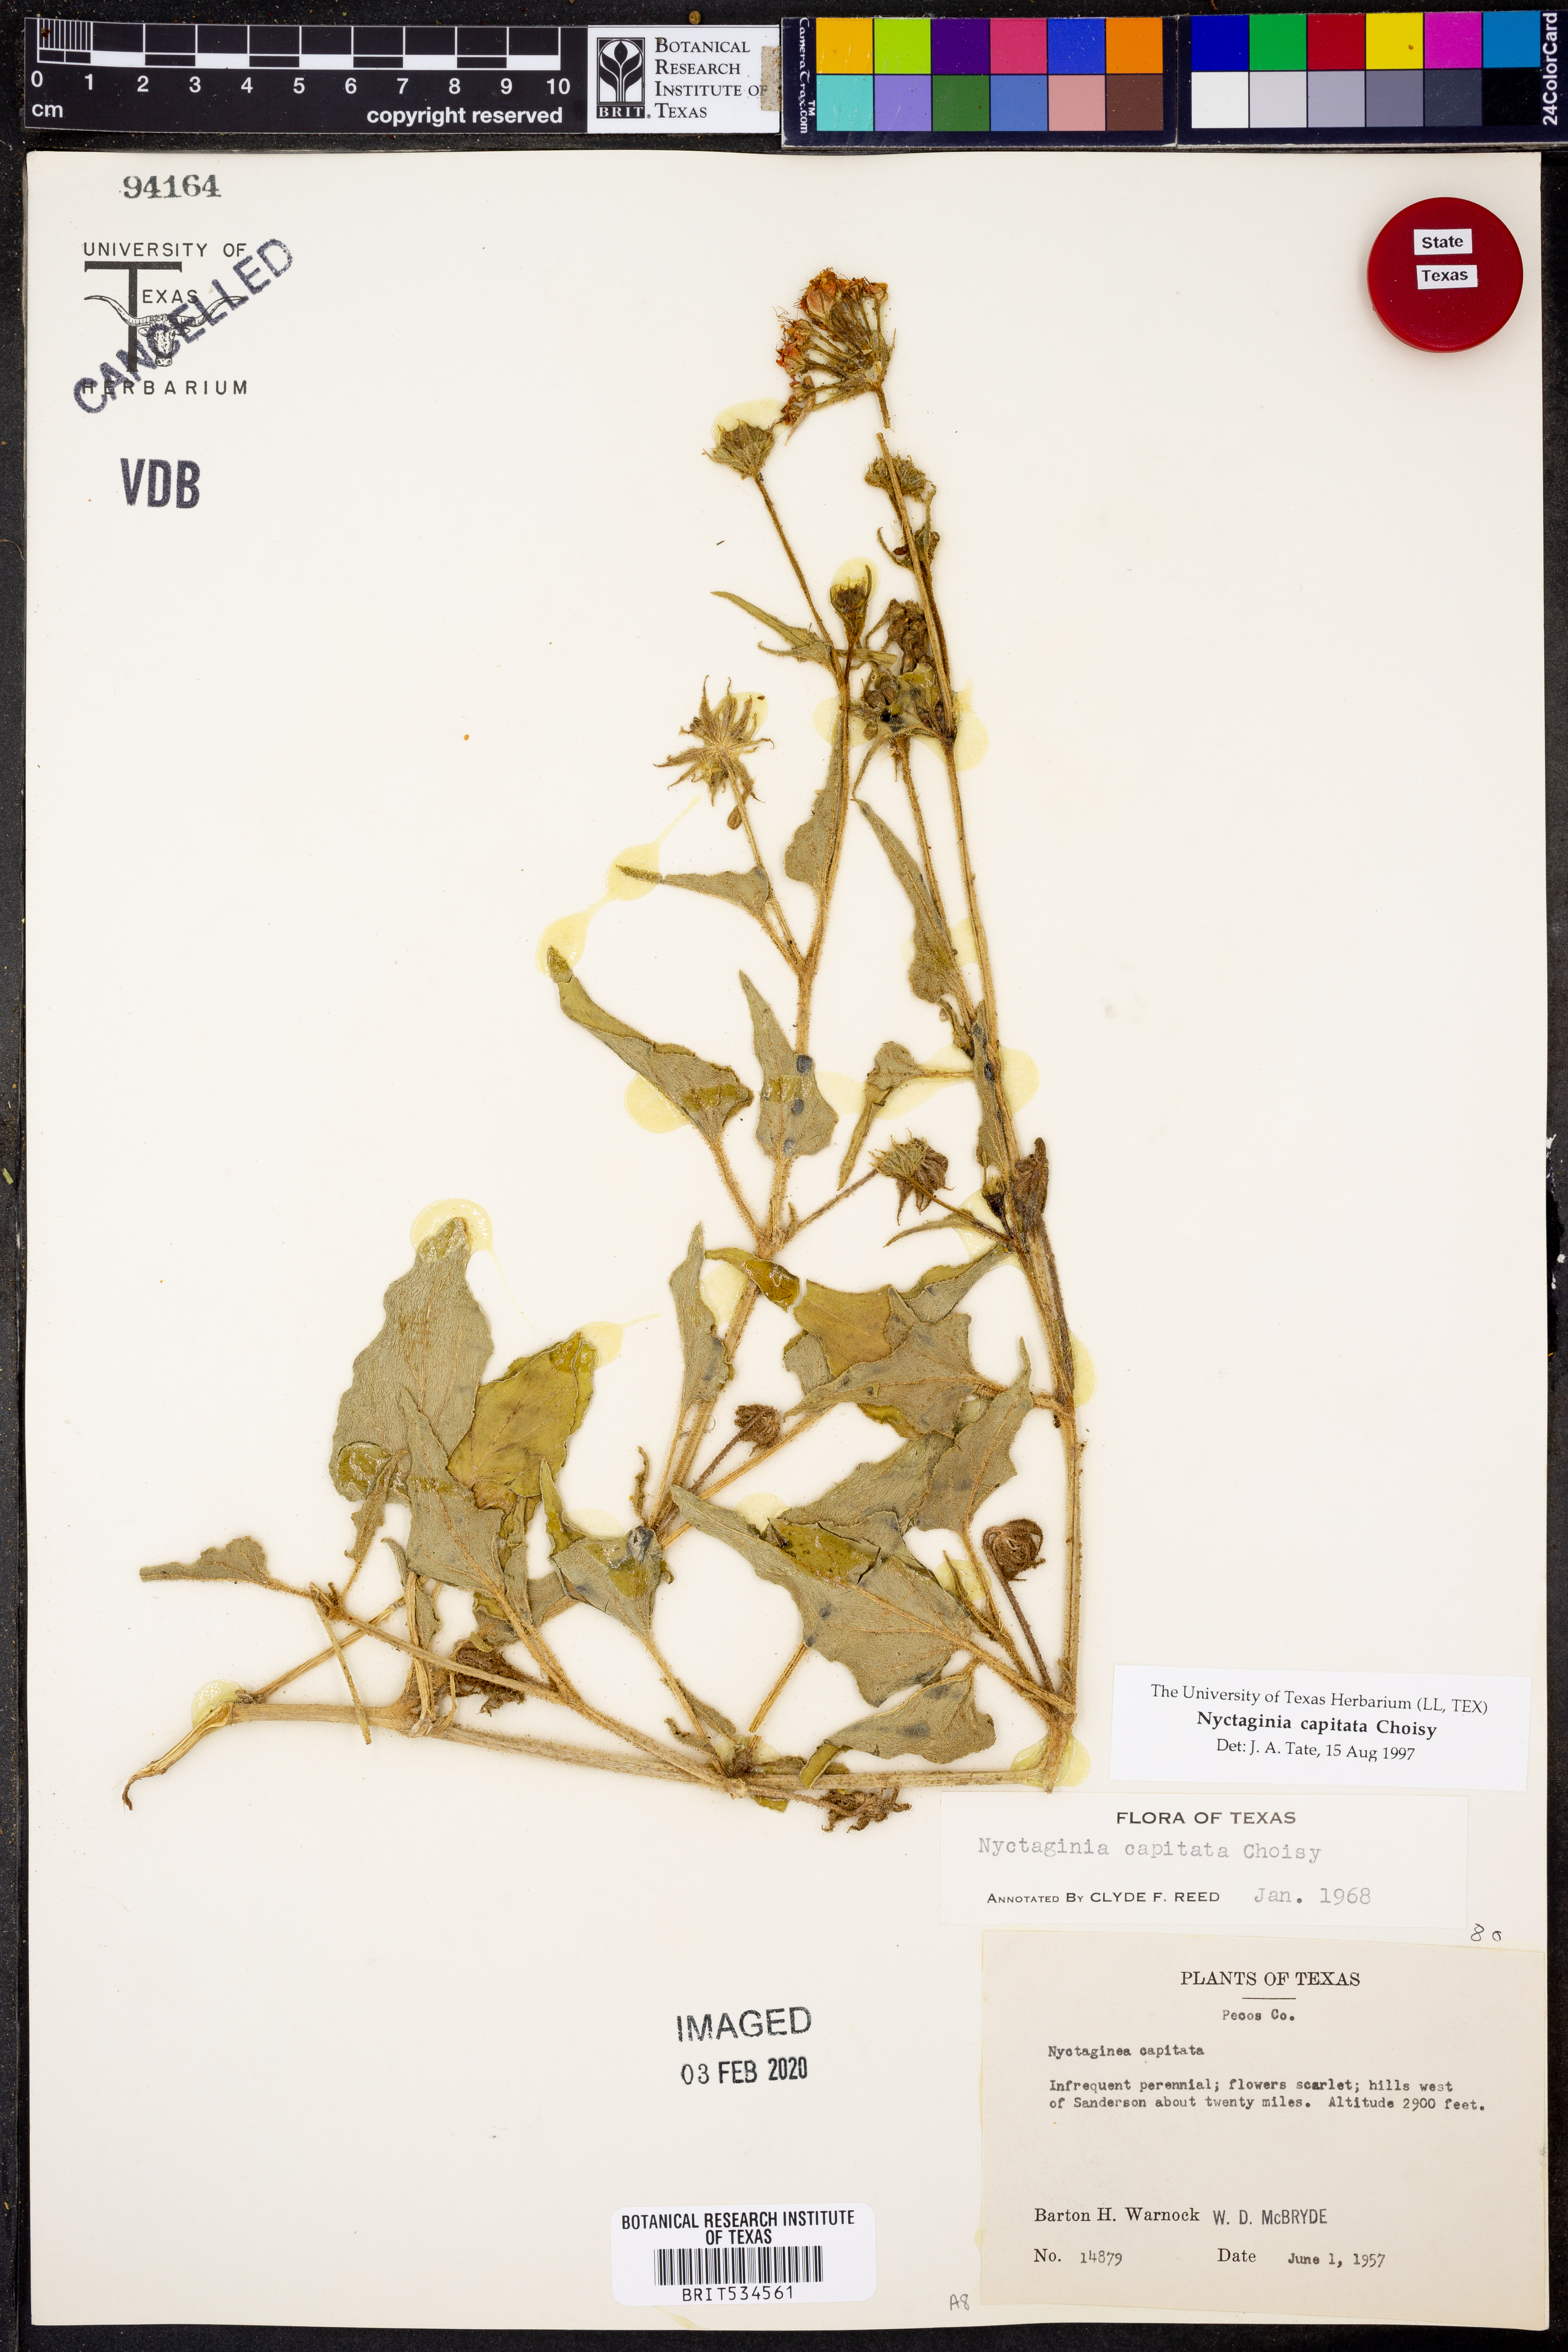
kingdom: Plantae
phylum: Tracheophyta
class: Magnoliopsida
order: Caryophyllales
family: Nyctaginaceae
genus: Nyctaginia
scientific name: Nyctaginia capitata
